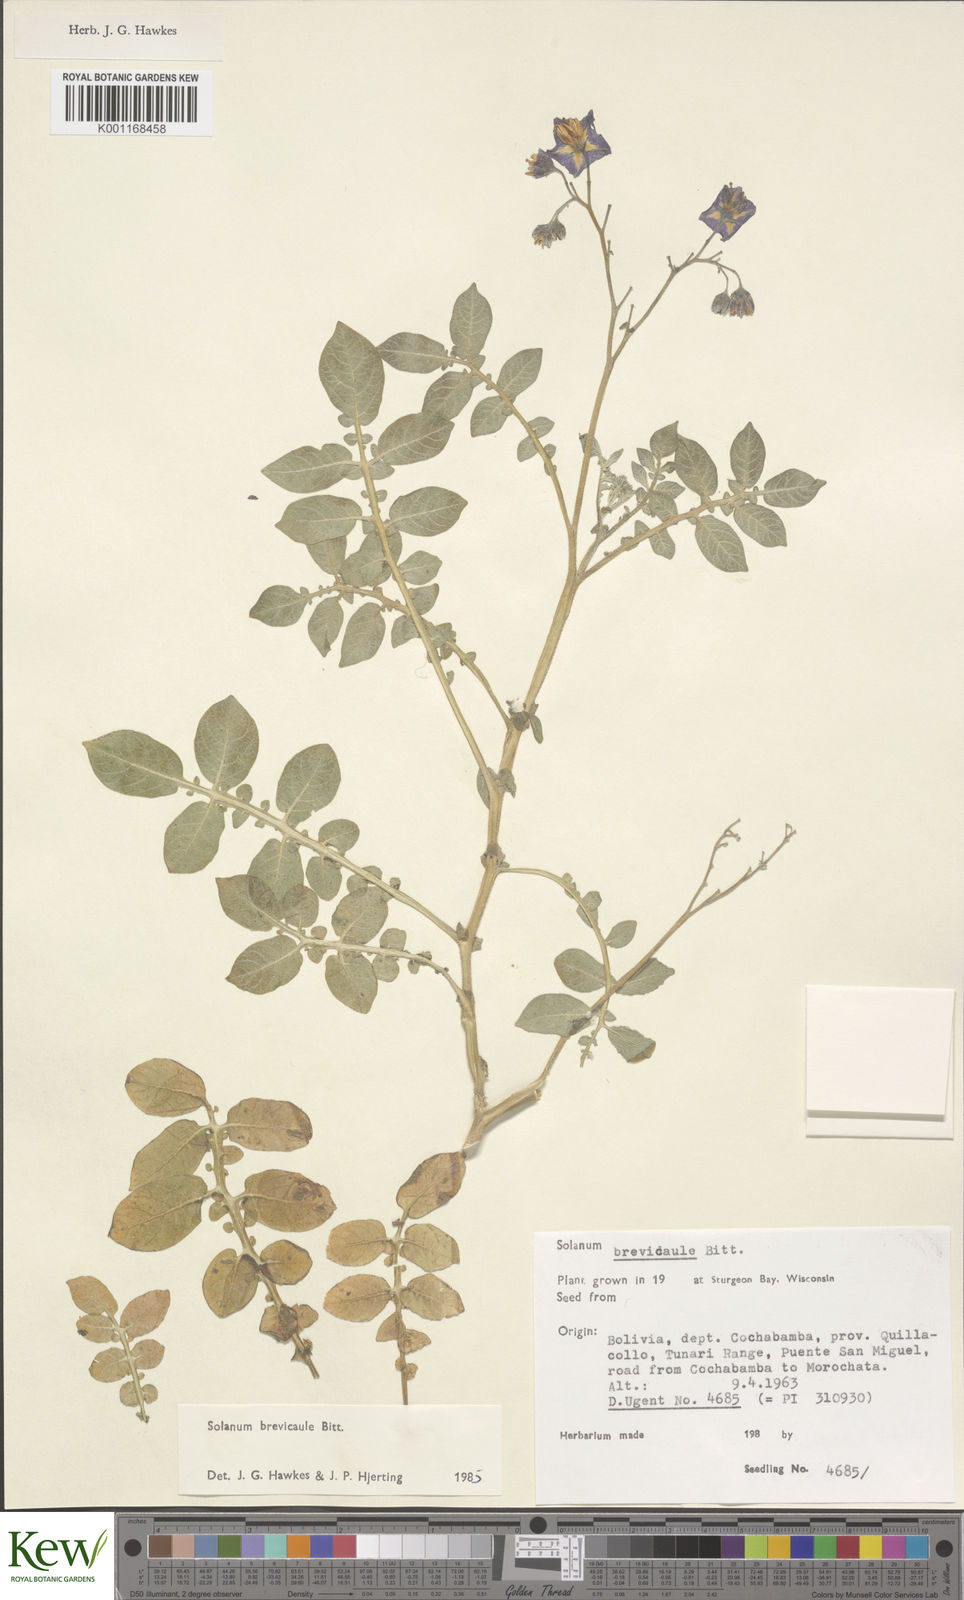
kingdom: Plantae
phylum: Tracheophyta
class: Magnoliopsida
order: Solanales
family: Solanaceae
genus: Solanum
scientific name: Solanum brevicaule
